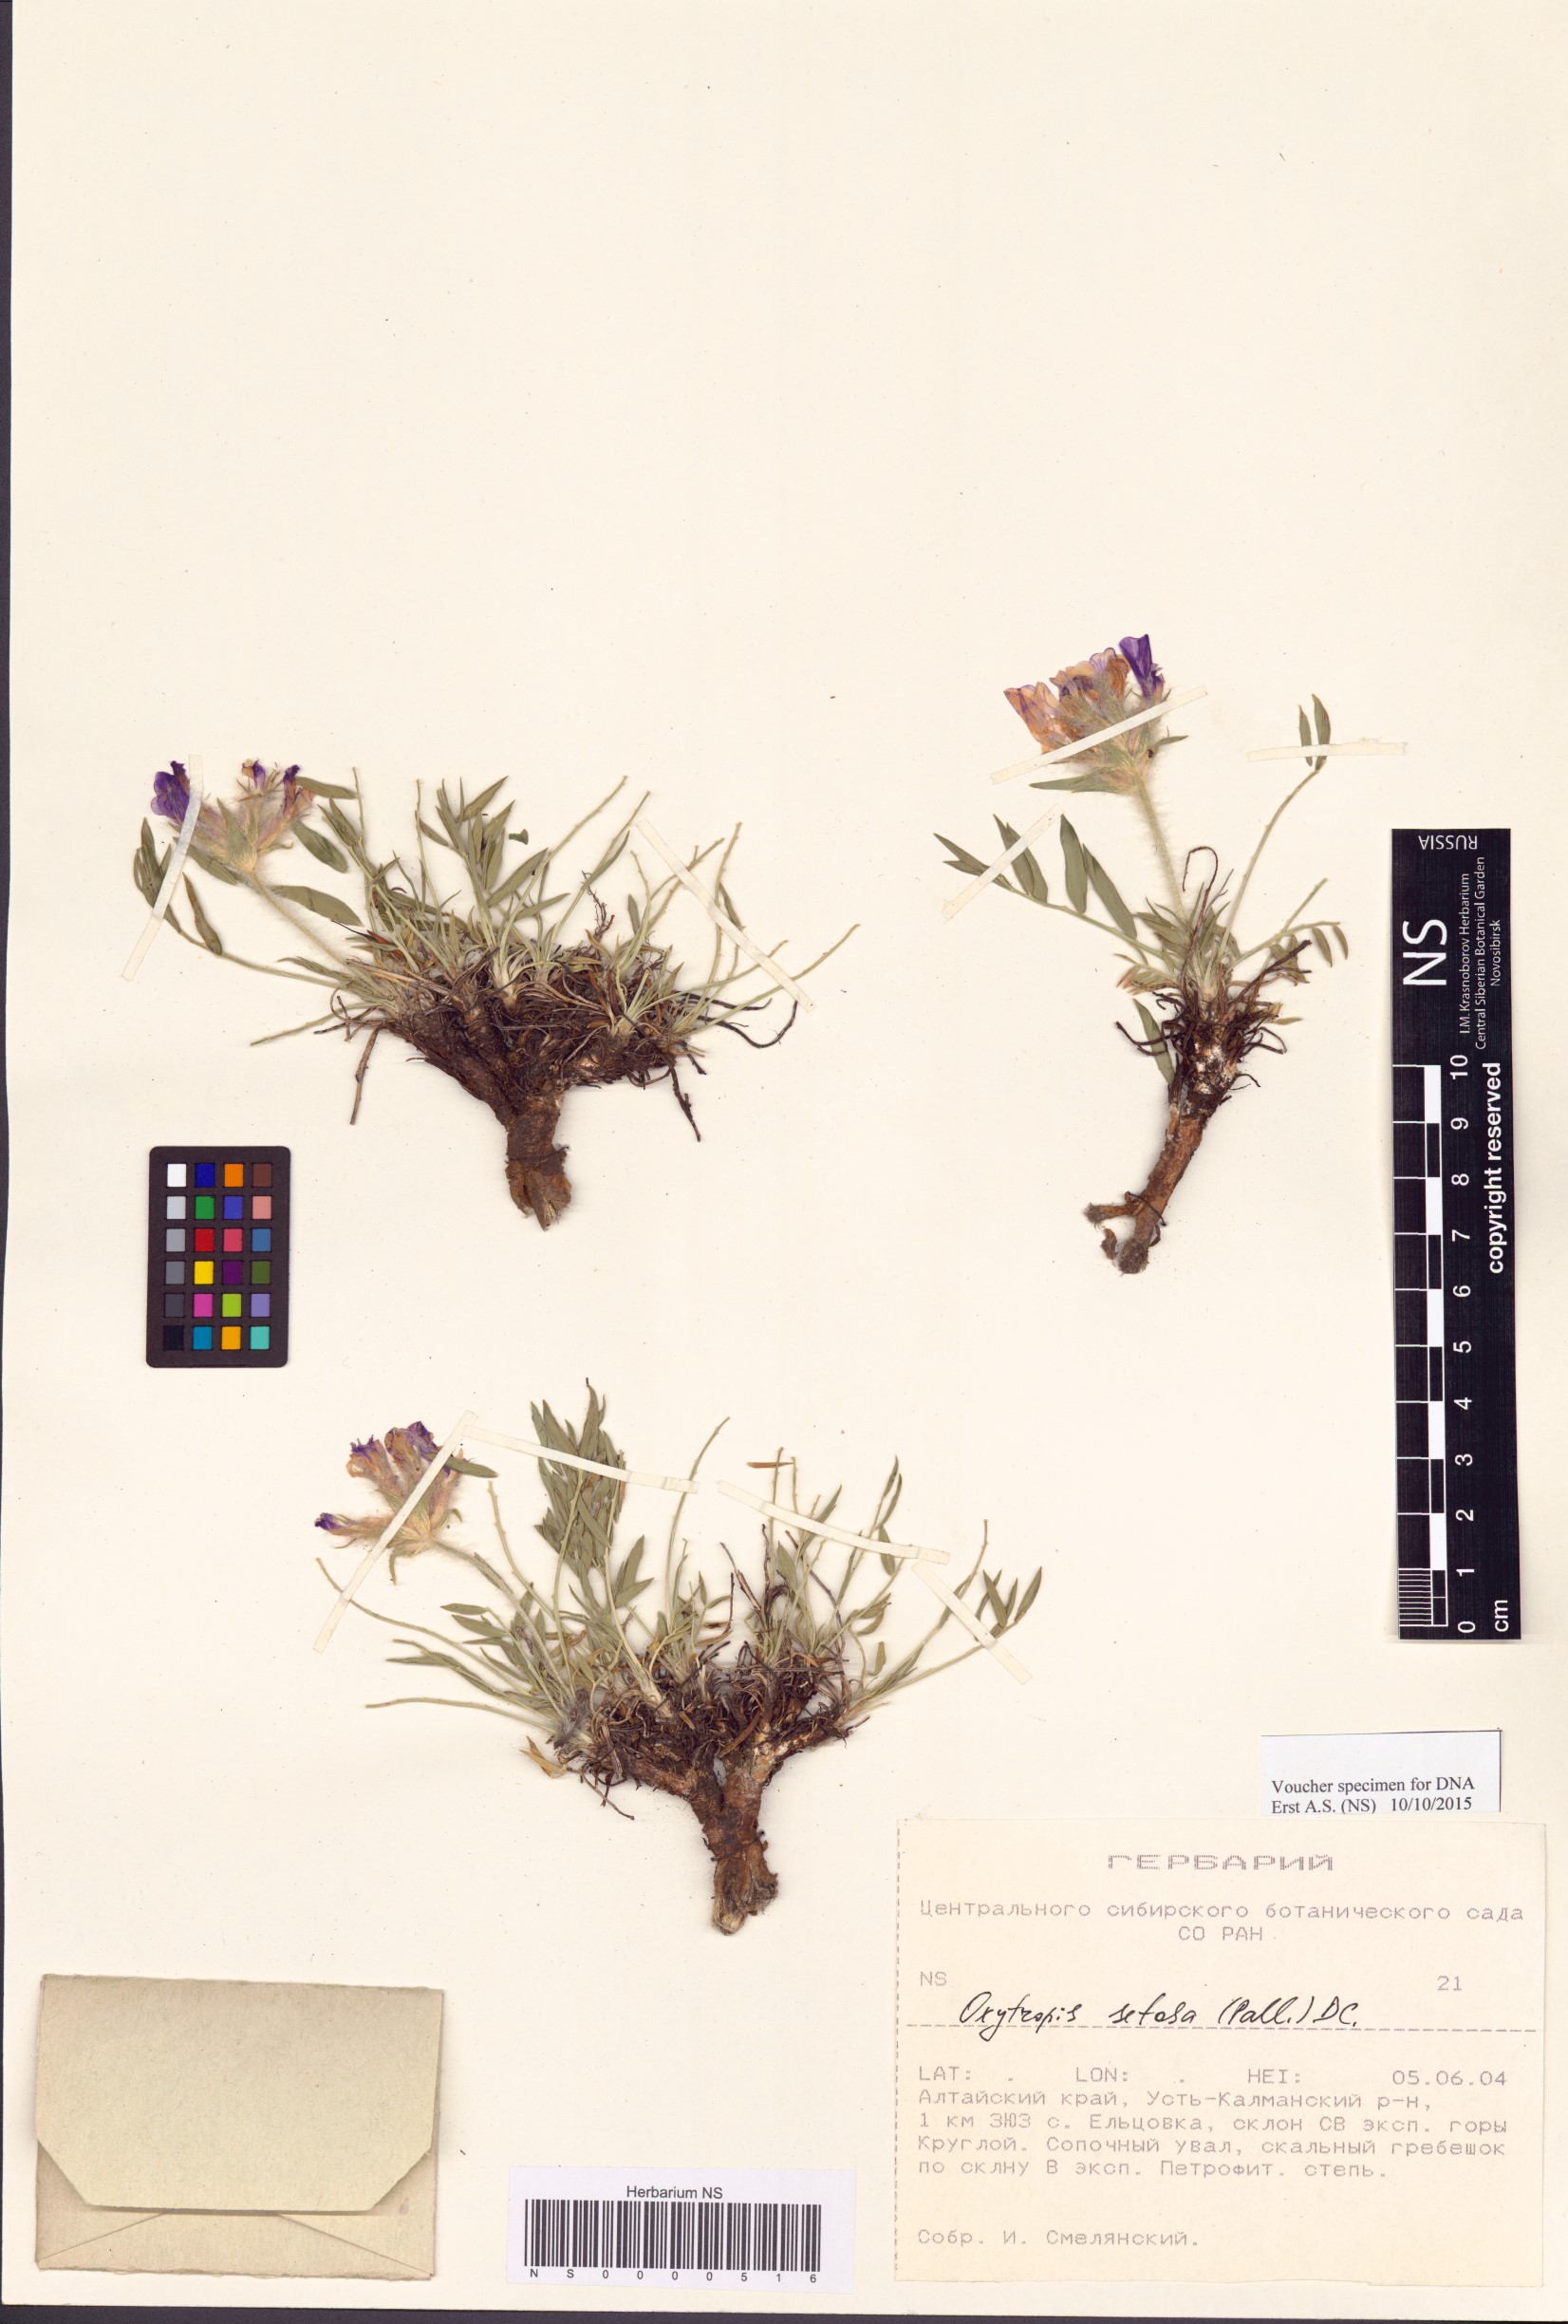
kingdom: Plantae
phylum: Tracheophyta
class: Magnoliopsida
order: Fabales
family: Fabaceae
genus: Oxytropis
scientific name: Oxytropis setosa
